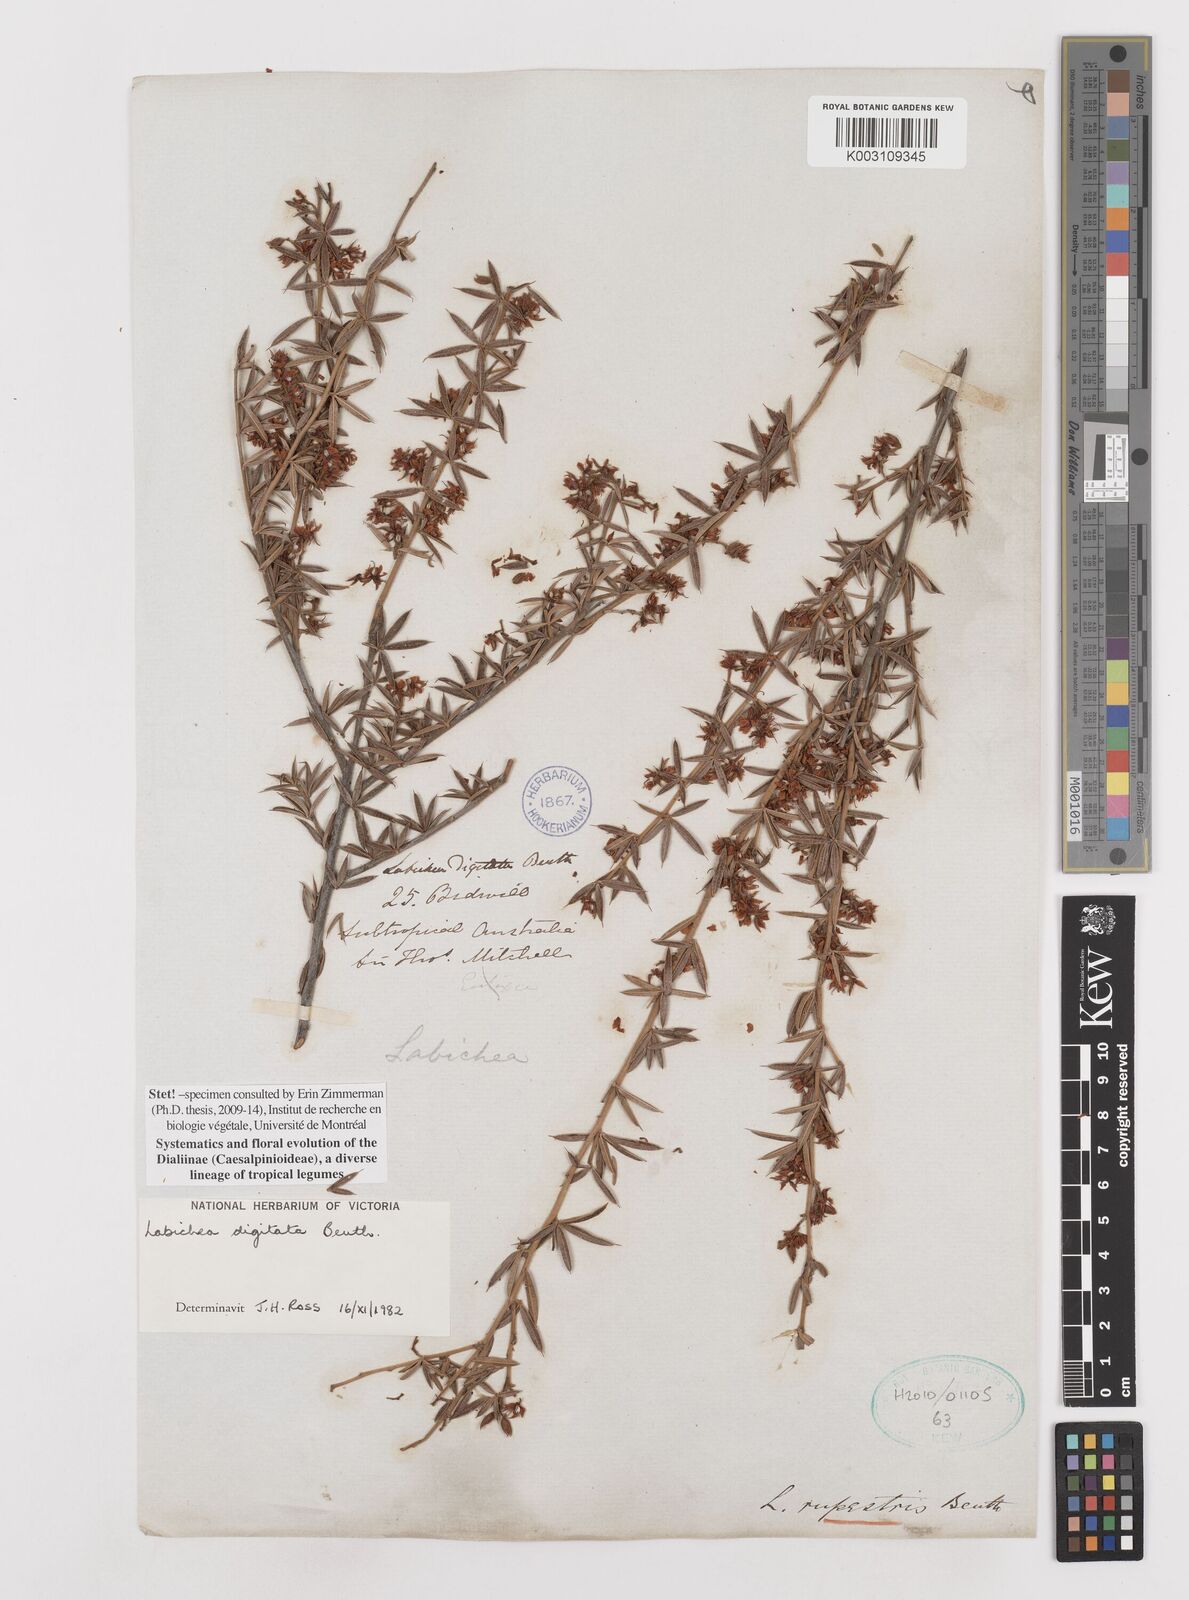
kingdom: Plantae
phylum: Tracheophyta
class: Magnoliopsida
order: Fabales
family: Fabaceae
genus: Labichea
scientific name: Labichea digitata
